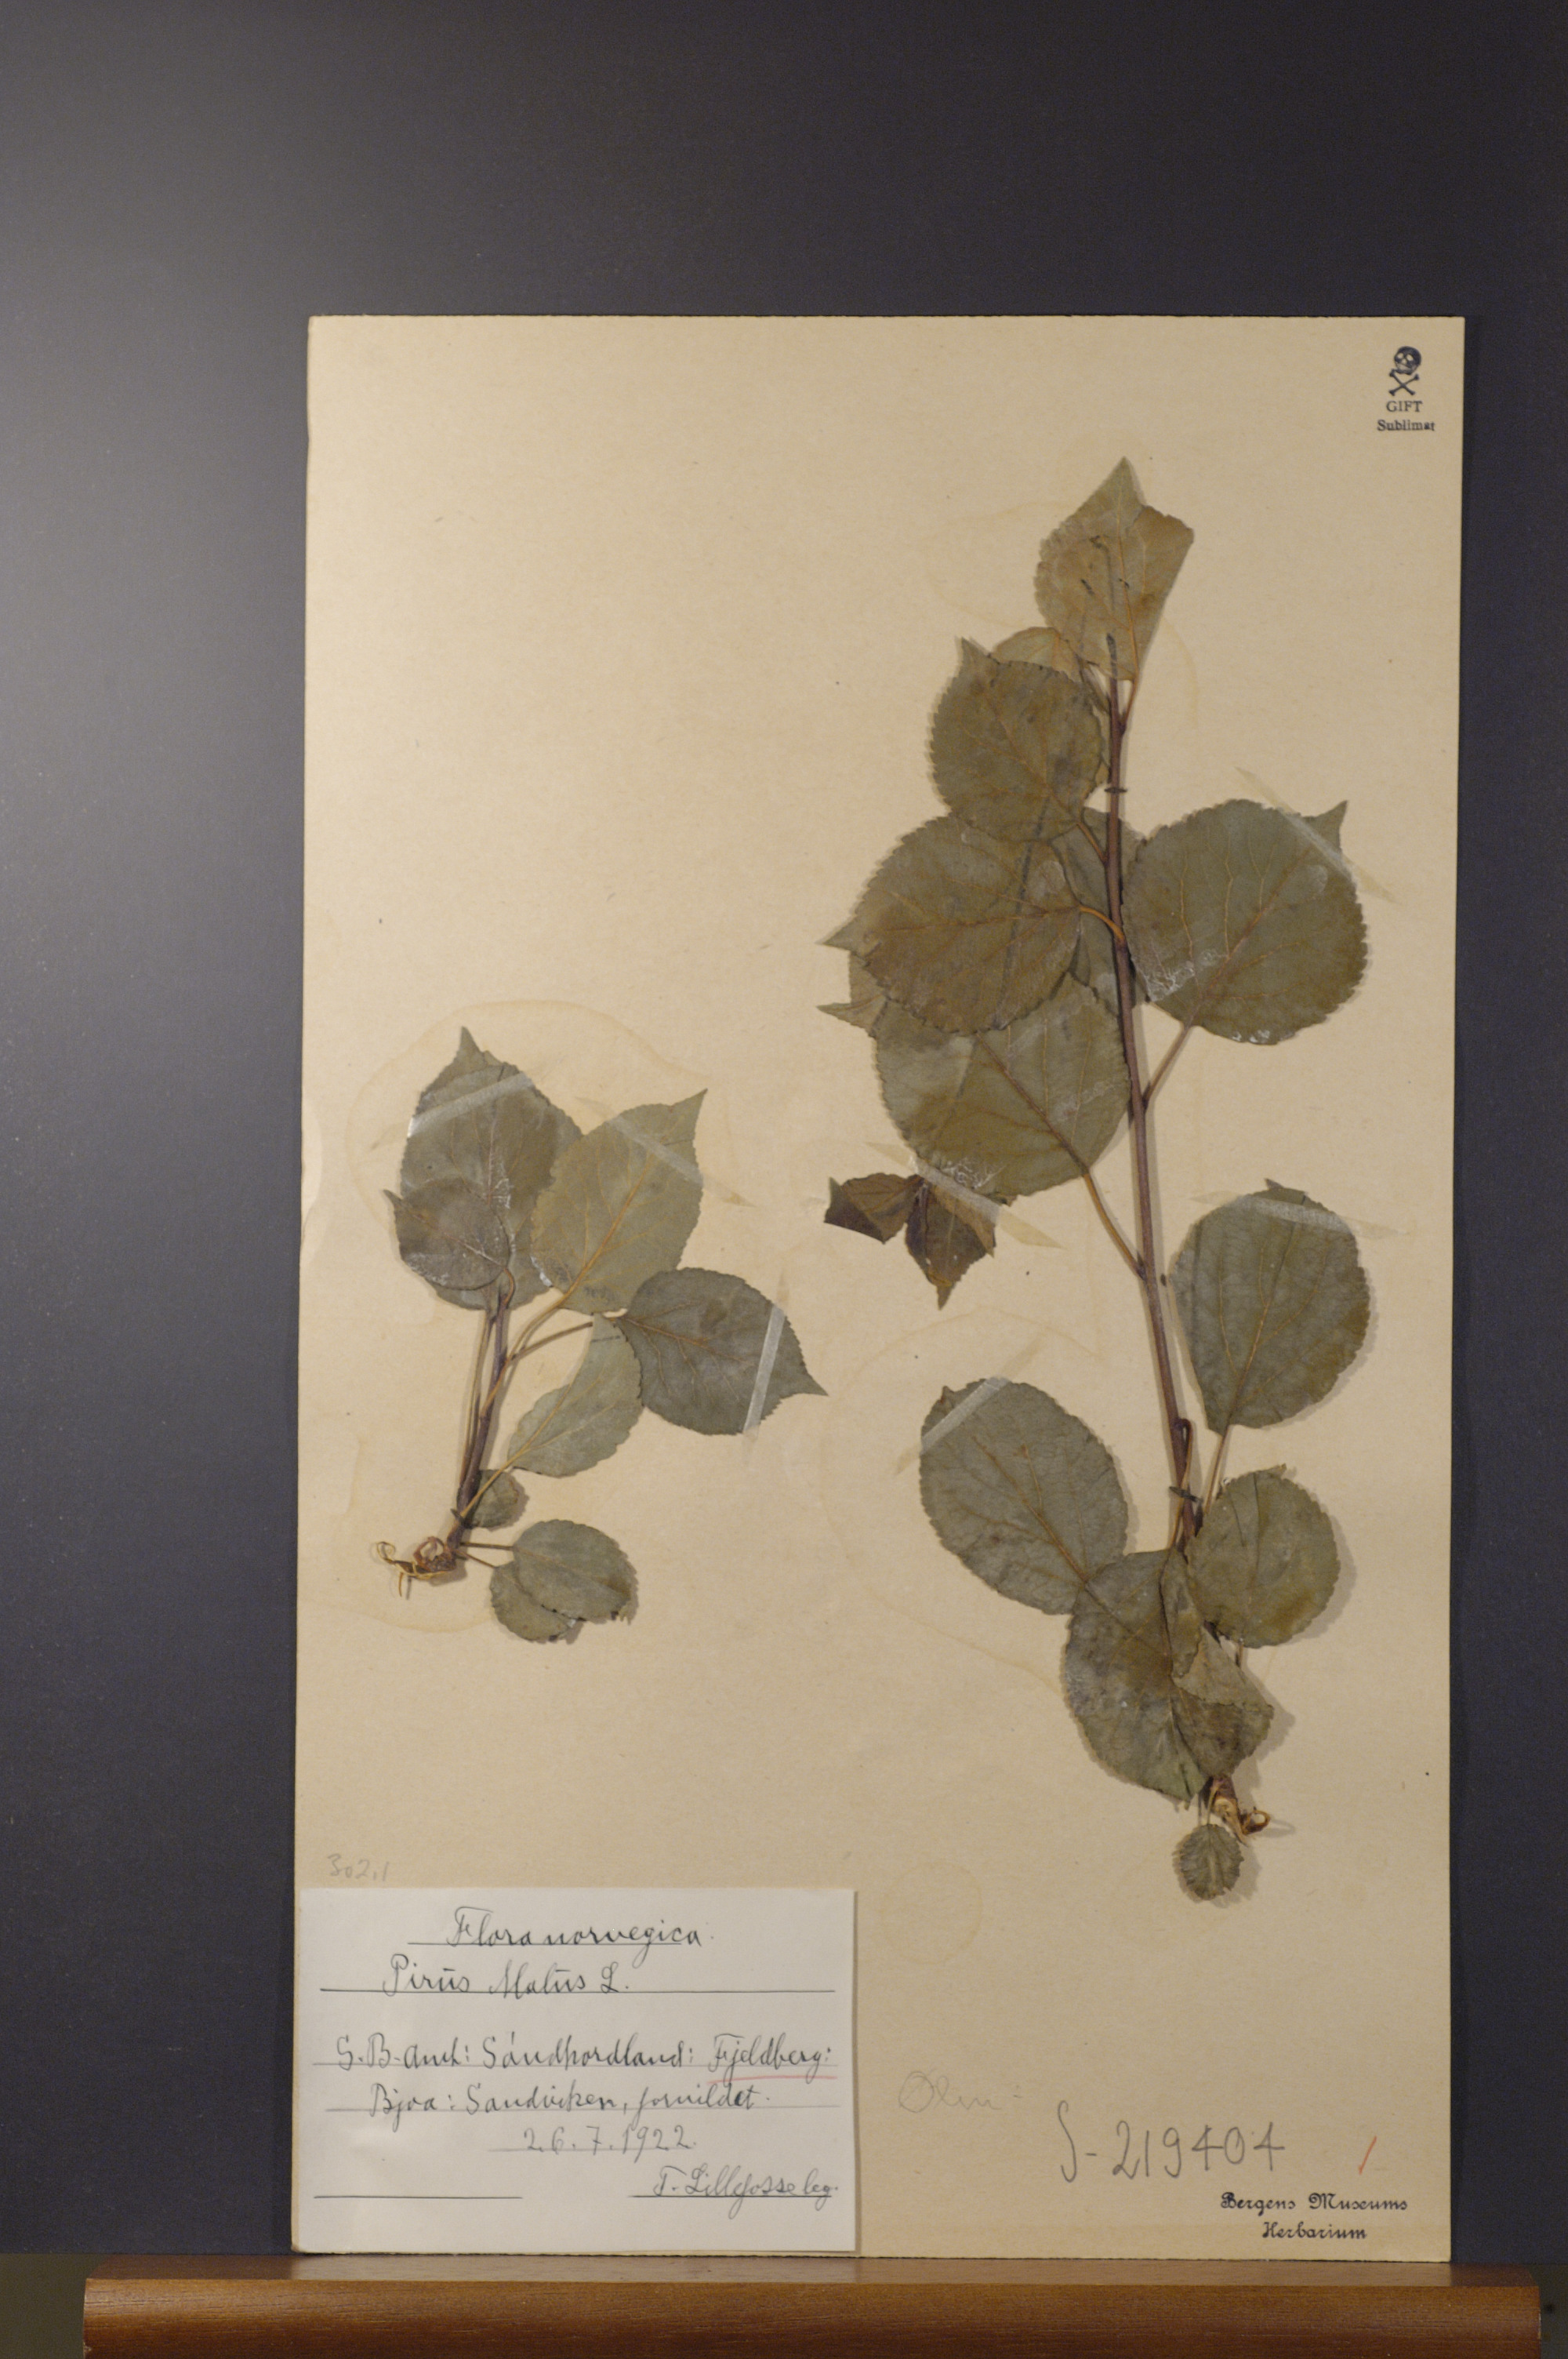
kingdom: Plantae
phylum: Tracheophyta
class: Magnoliopsida
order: Rosales
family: Rosaceae
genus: Malus
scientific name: Malus domestica
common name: Apple
